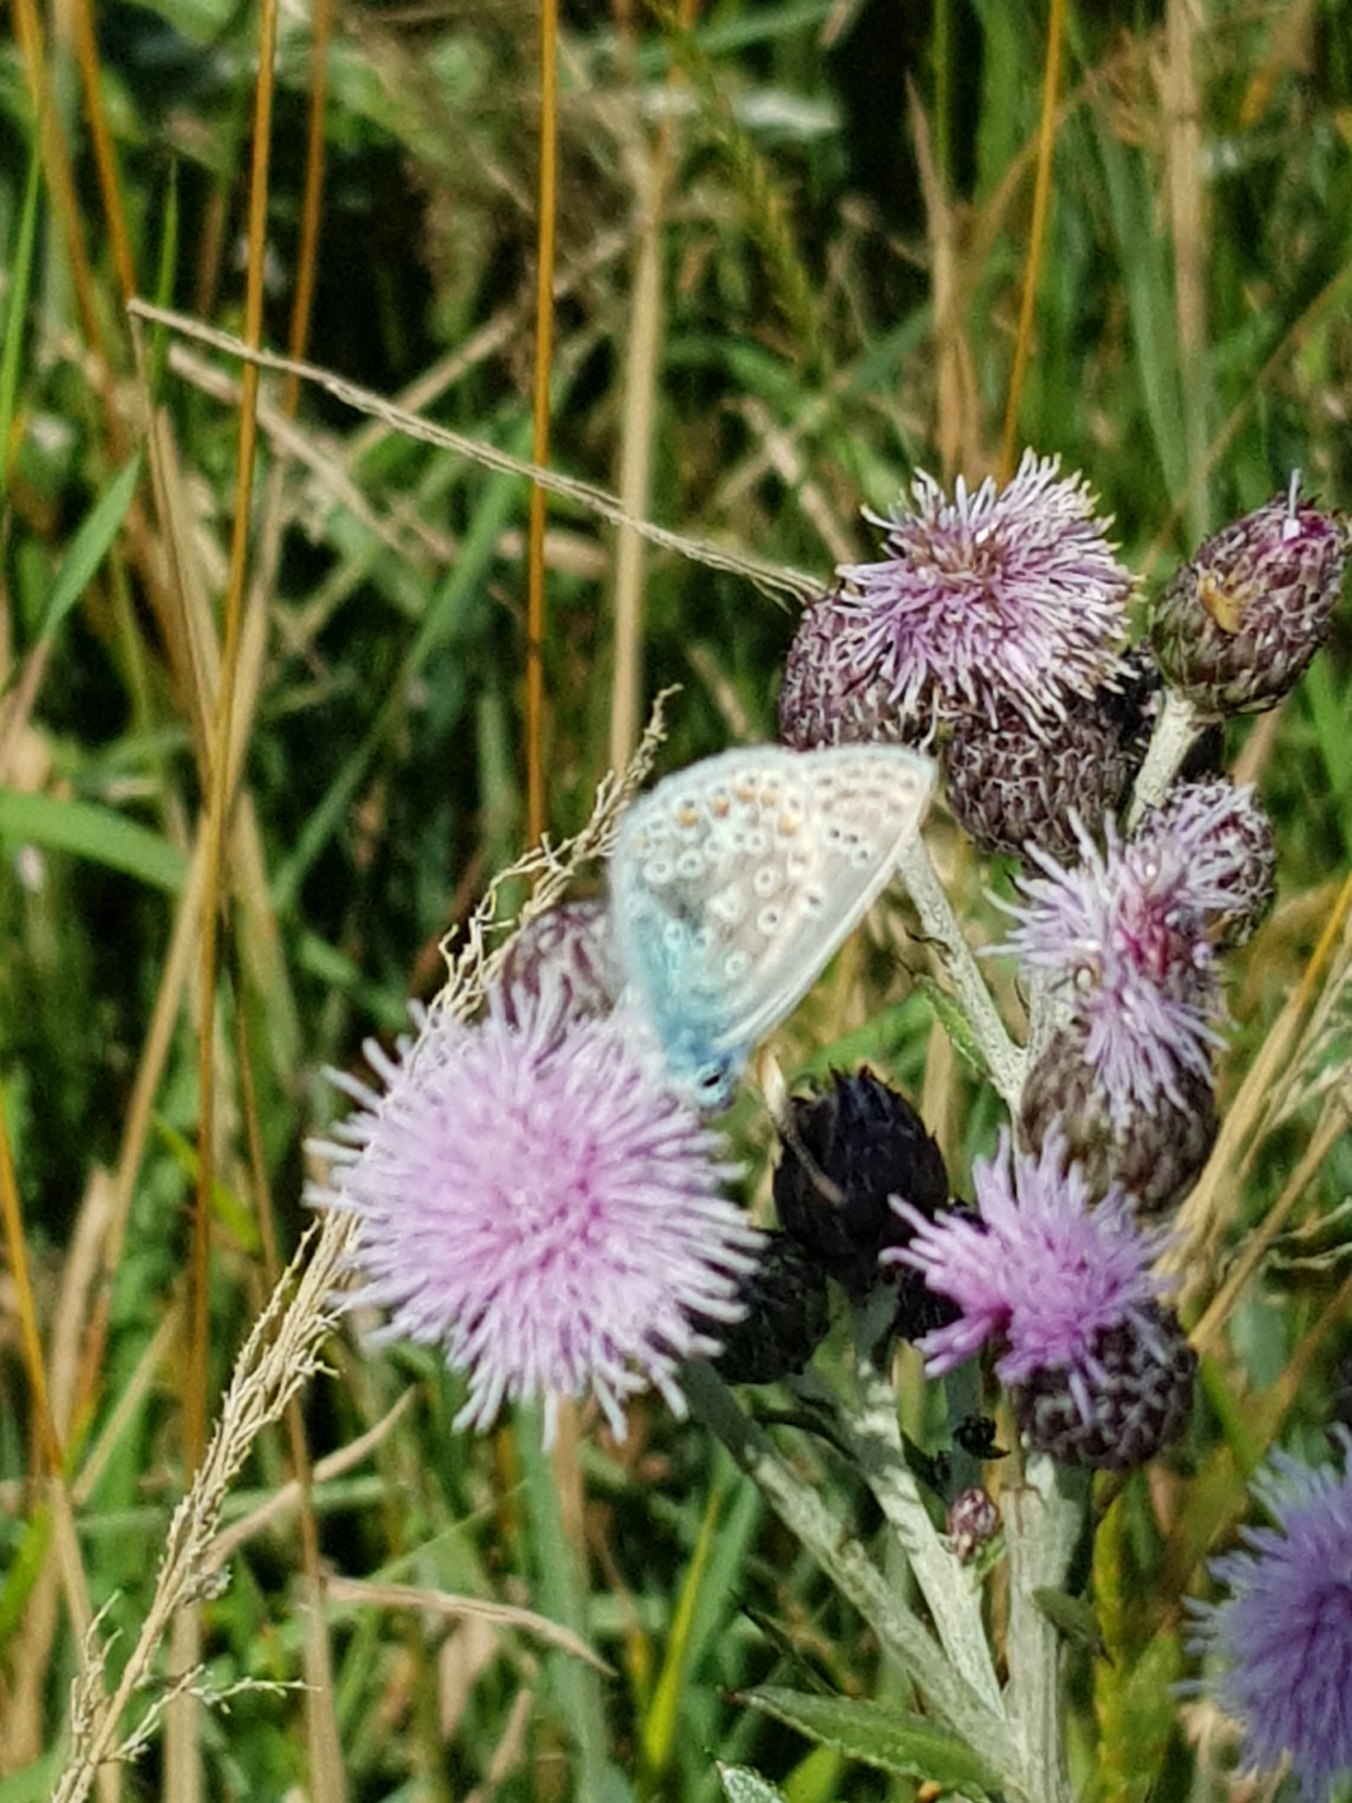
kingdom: Animalia
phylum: Arthropoda
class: Insecta
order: Lepidoptera
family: Lycaenidae
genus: Polyommatus
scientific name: Polyommatus icarus
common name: Almindelig blåfugl
